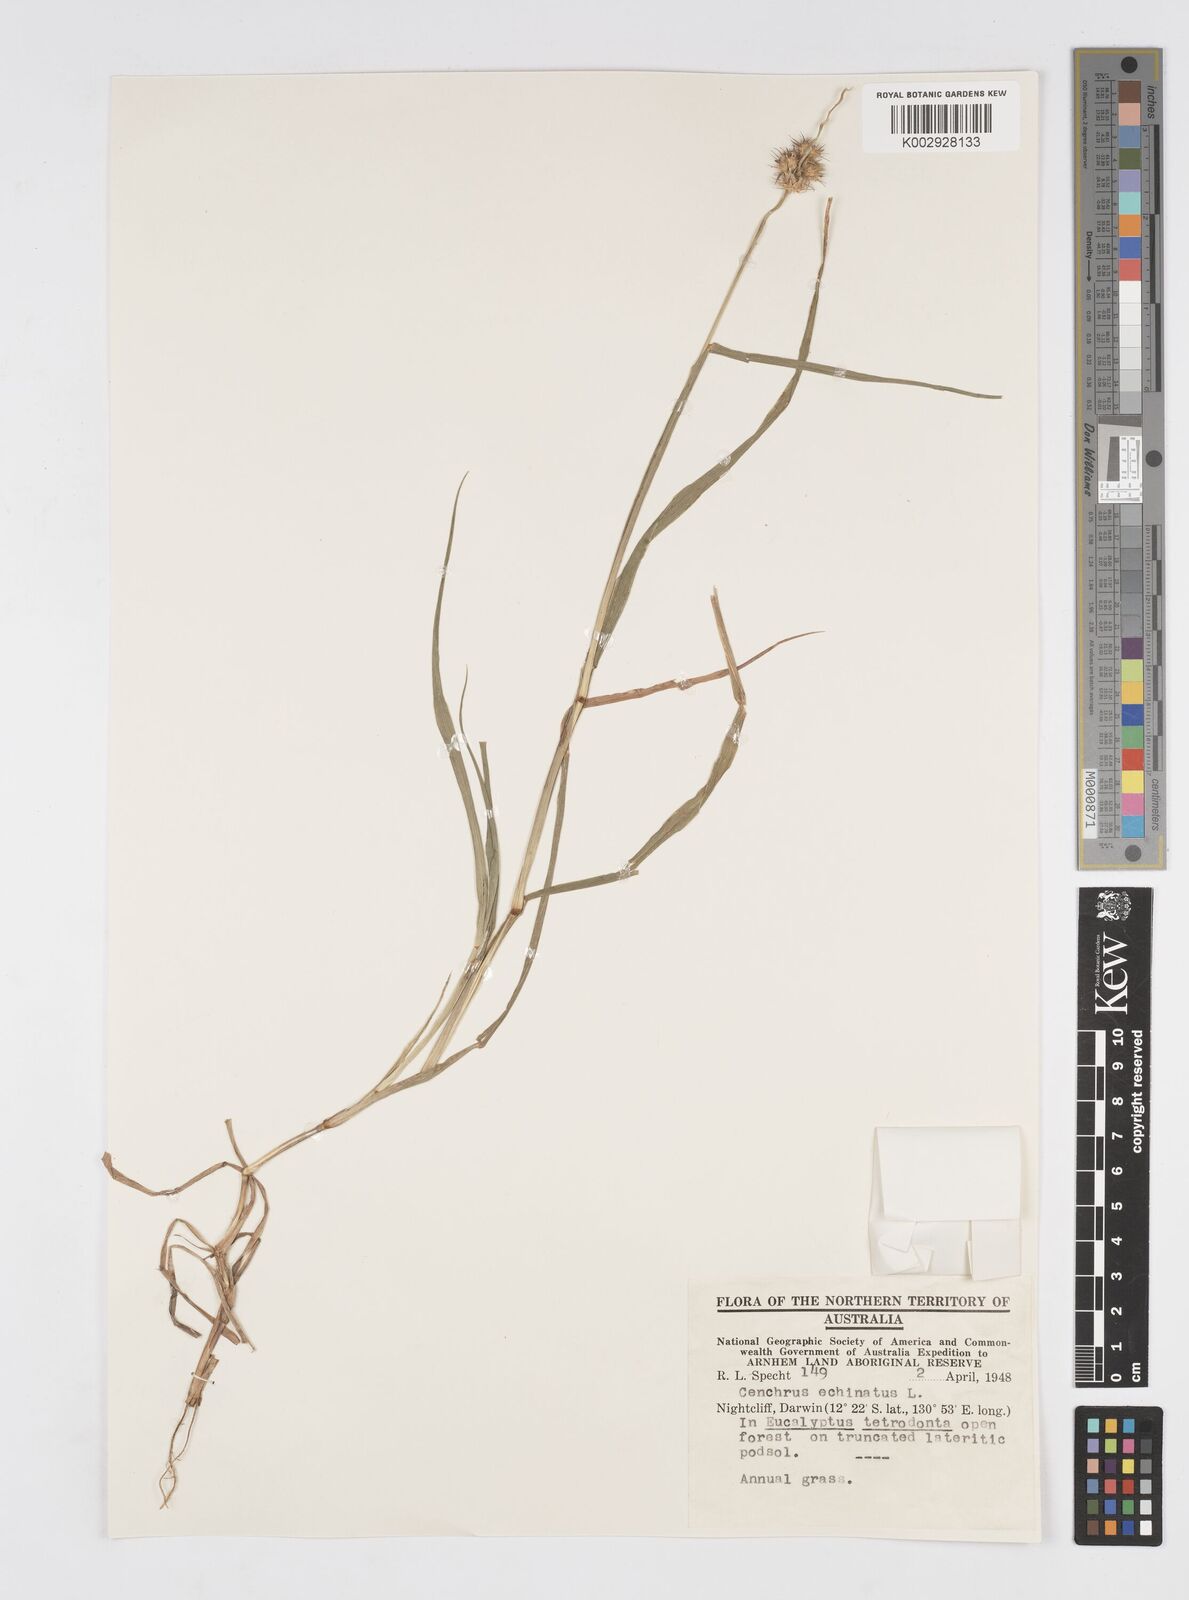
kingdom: Plantae
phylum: Tracheophyta
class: Liliopsida
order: Poales
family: Poaceae
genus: Cenchrus
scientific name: Cenchrus echinatus
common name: Southern sandbur
